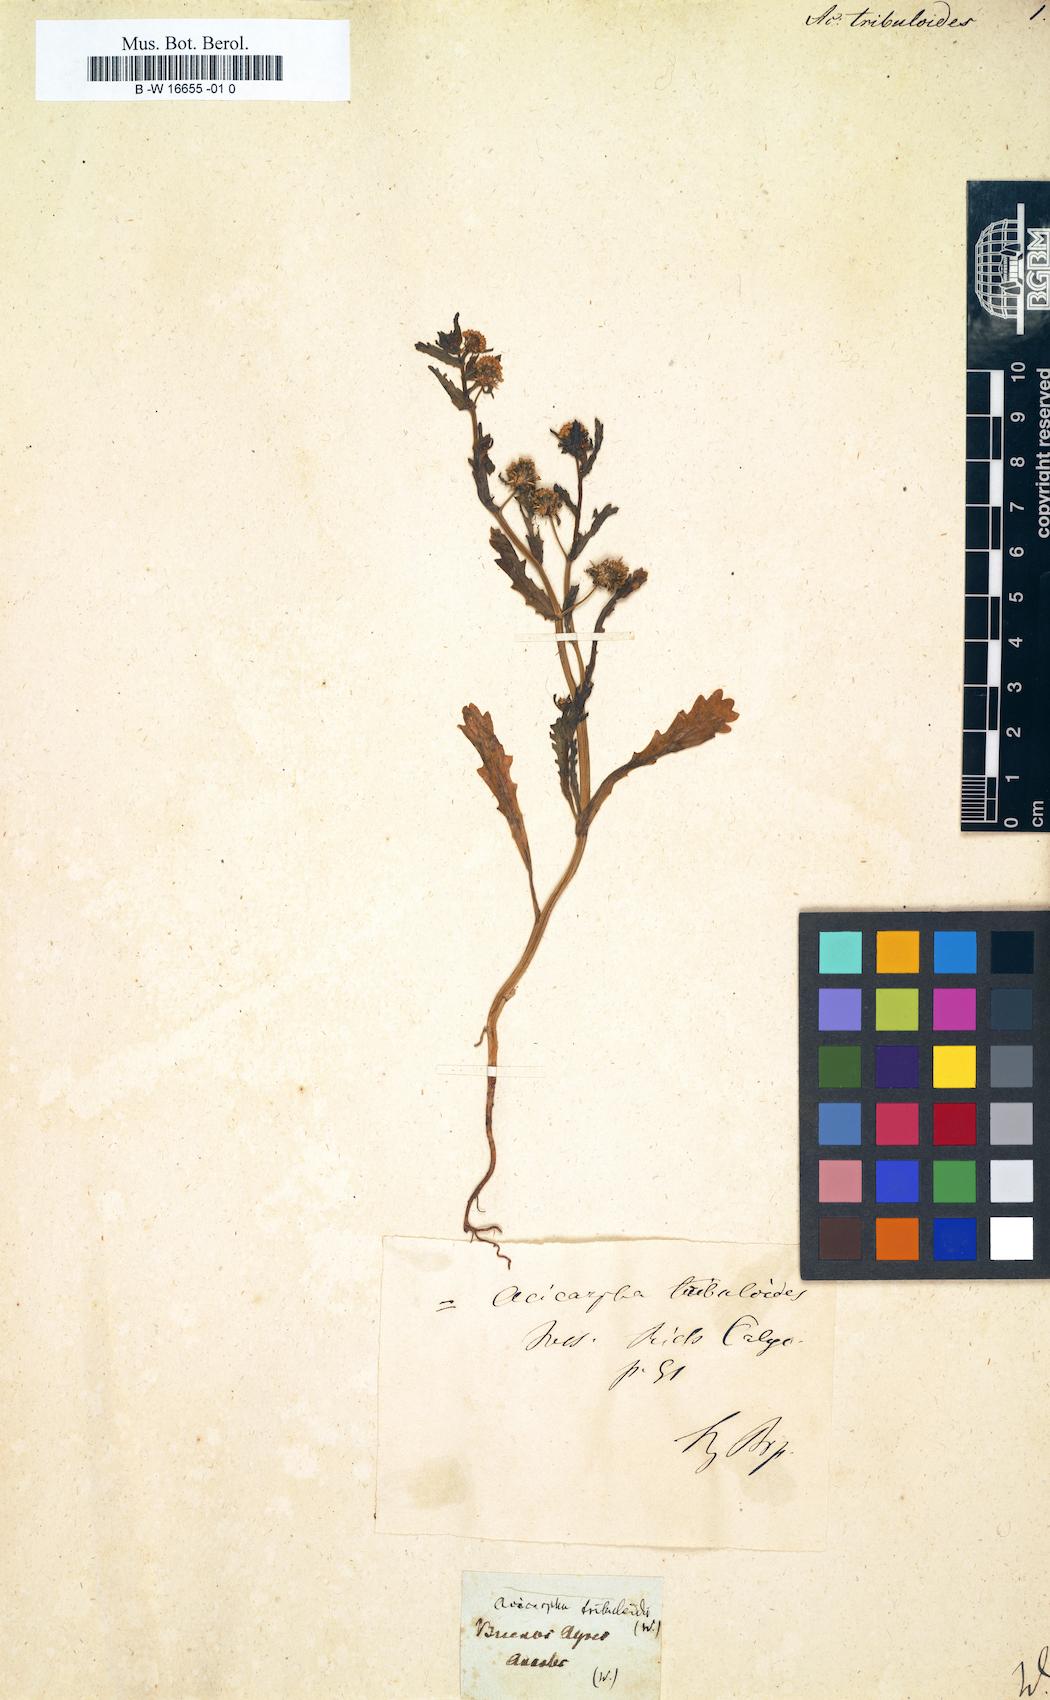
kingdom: Plantae
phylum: Tracheophyta
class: Magnoliopsida
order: Asterales
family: Calyceraceae
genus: Acicarpha
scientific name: Acicarpha tribuloides
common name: Madam gorgon
